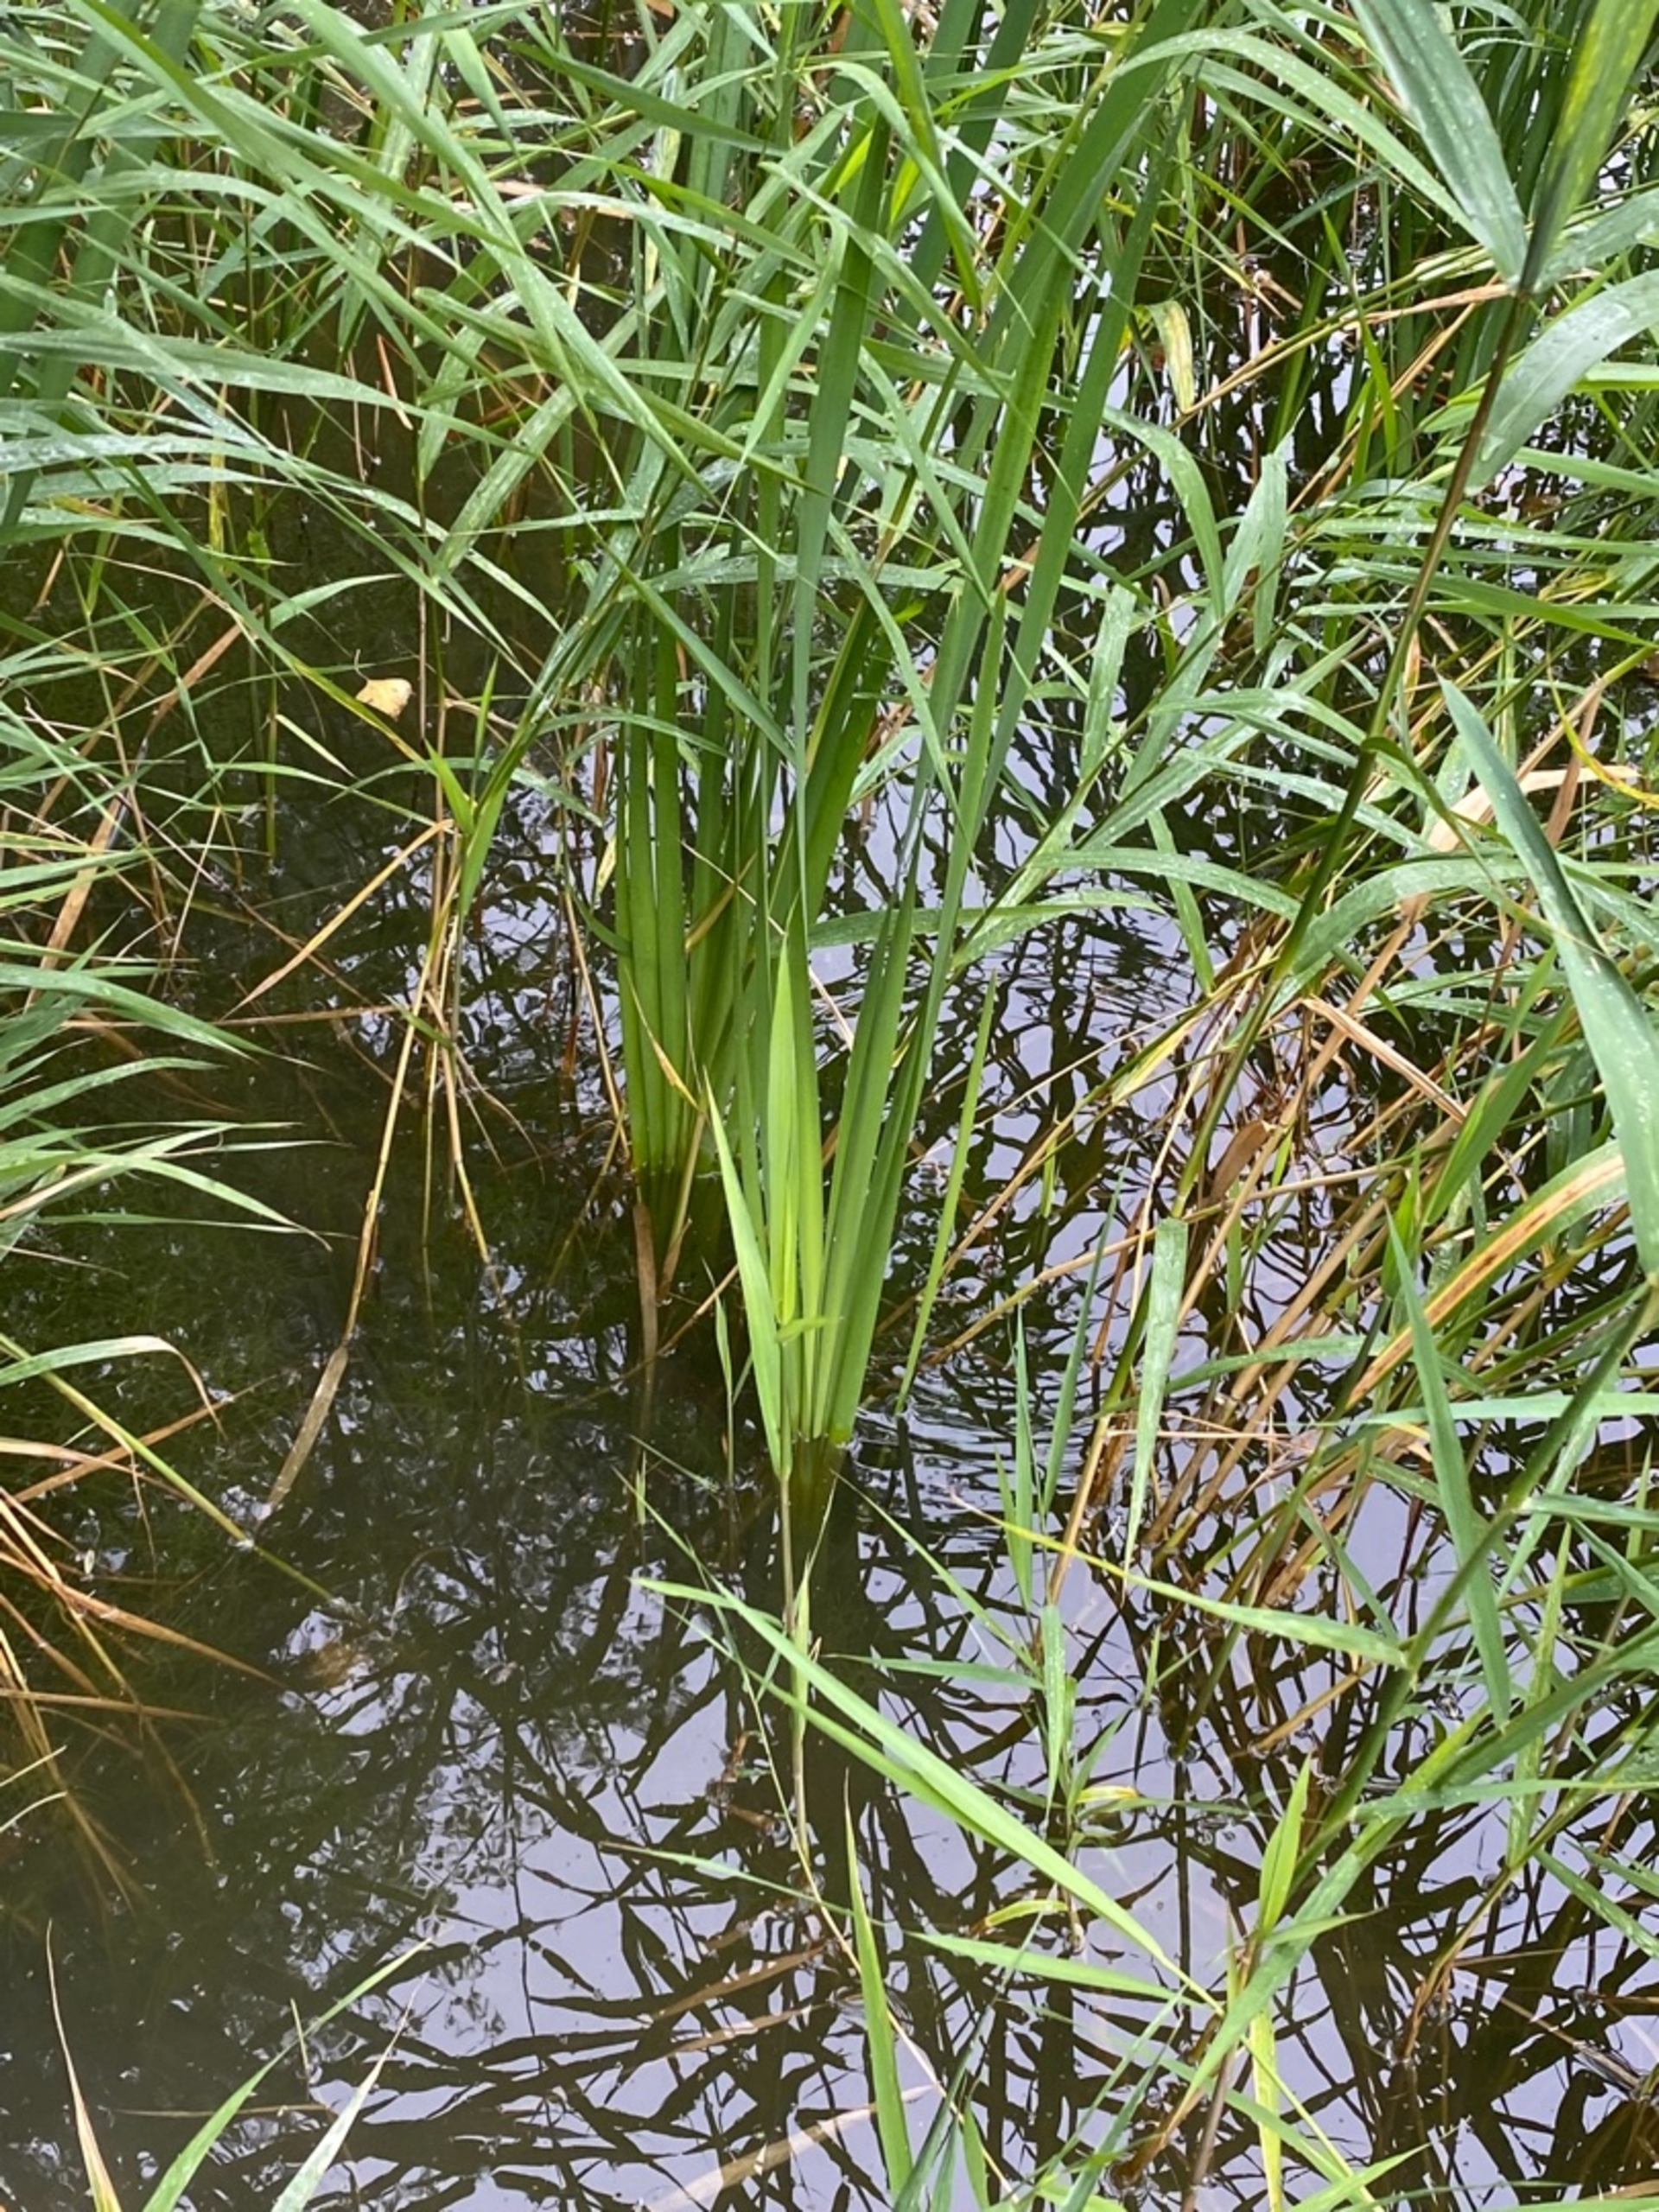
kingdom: Plantae
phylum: Tracheophyta
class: Liliopsida
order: Poales
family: Typhaceae
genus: Typha
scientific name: Typha latifolia
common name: Bredbladet dunhammer
